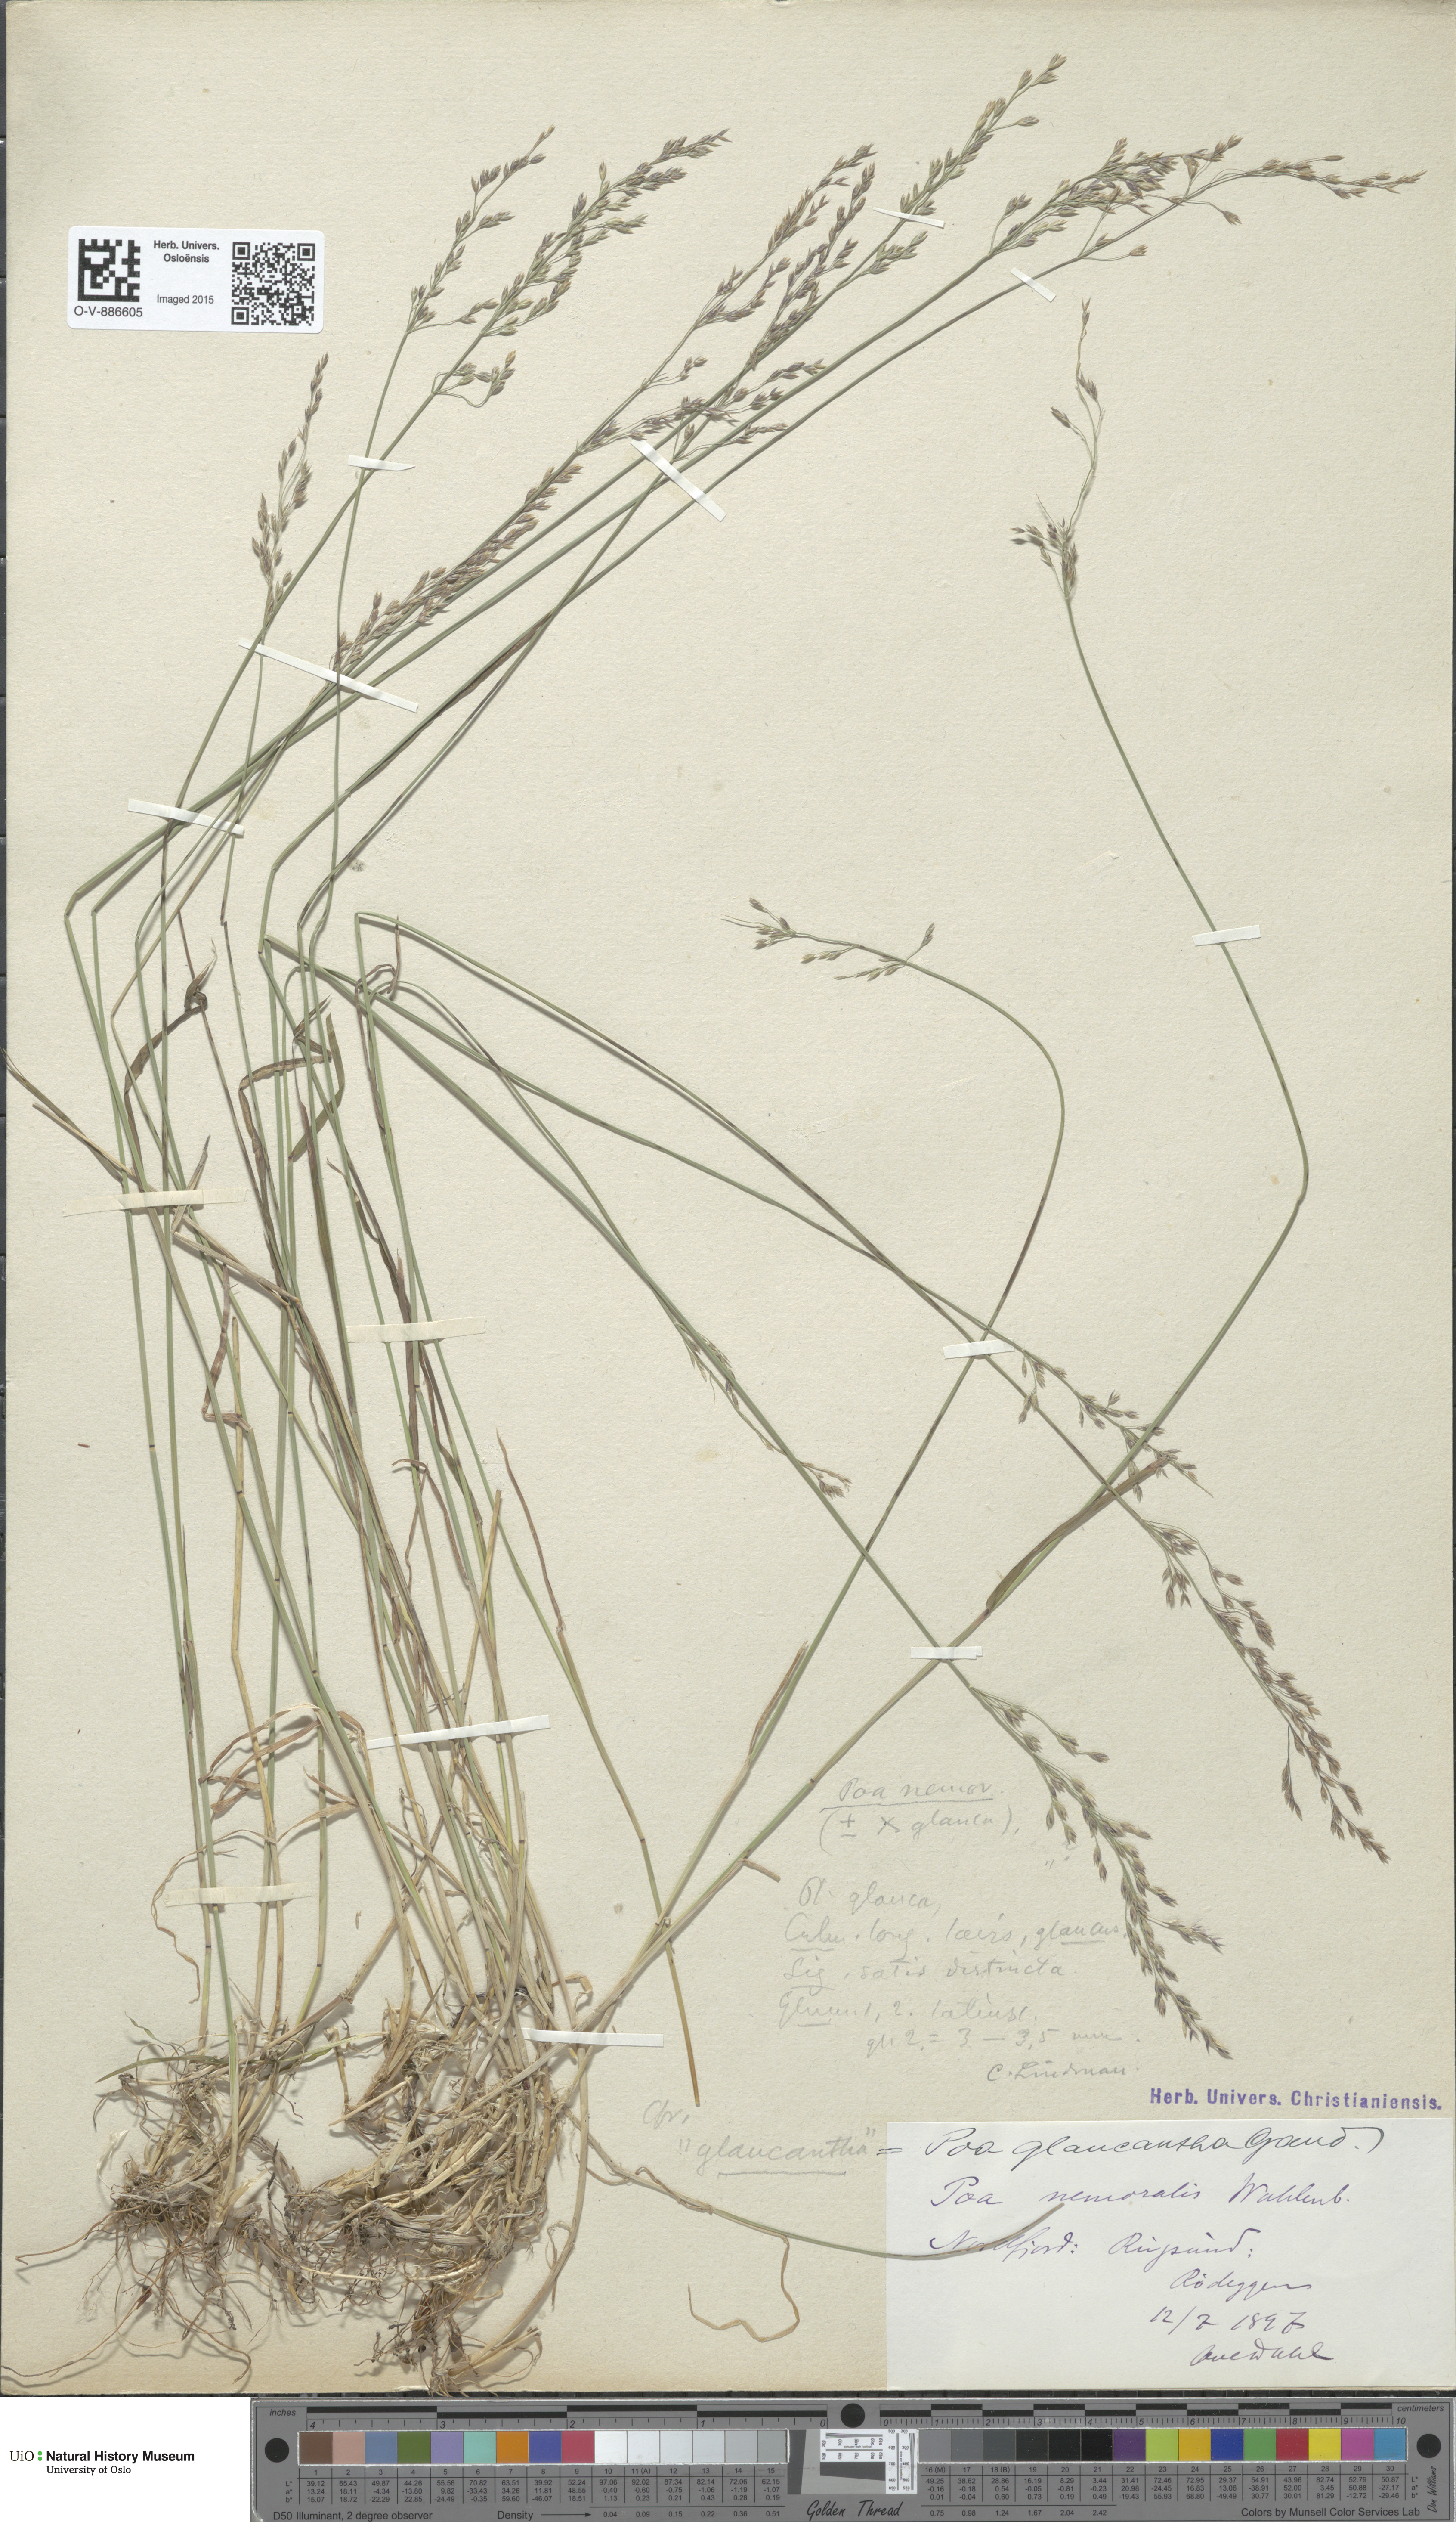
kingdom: Plantae
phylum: Tracheophyta
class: Liliopsida
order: Poales
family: Poaceae
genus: Poa
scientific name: Poa nemoralis
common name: Wood bluegrass
